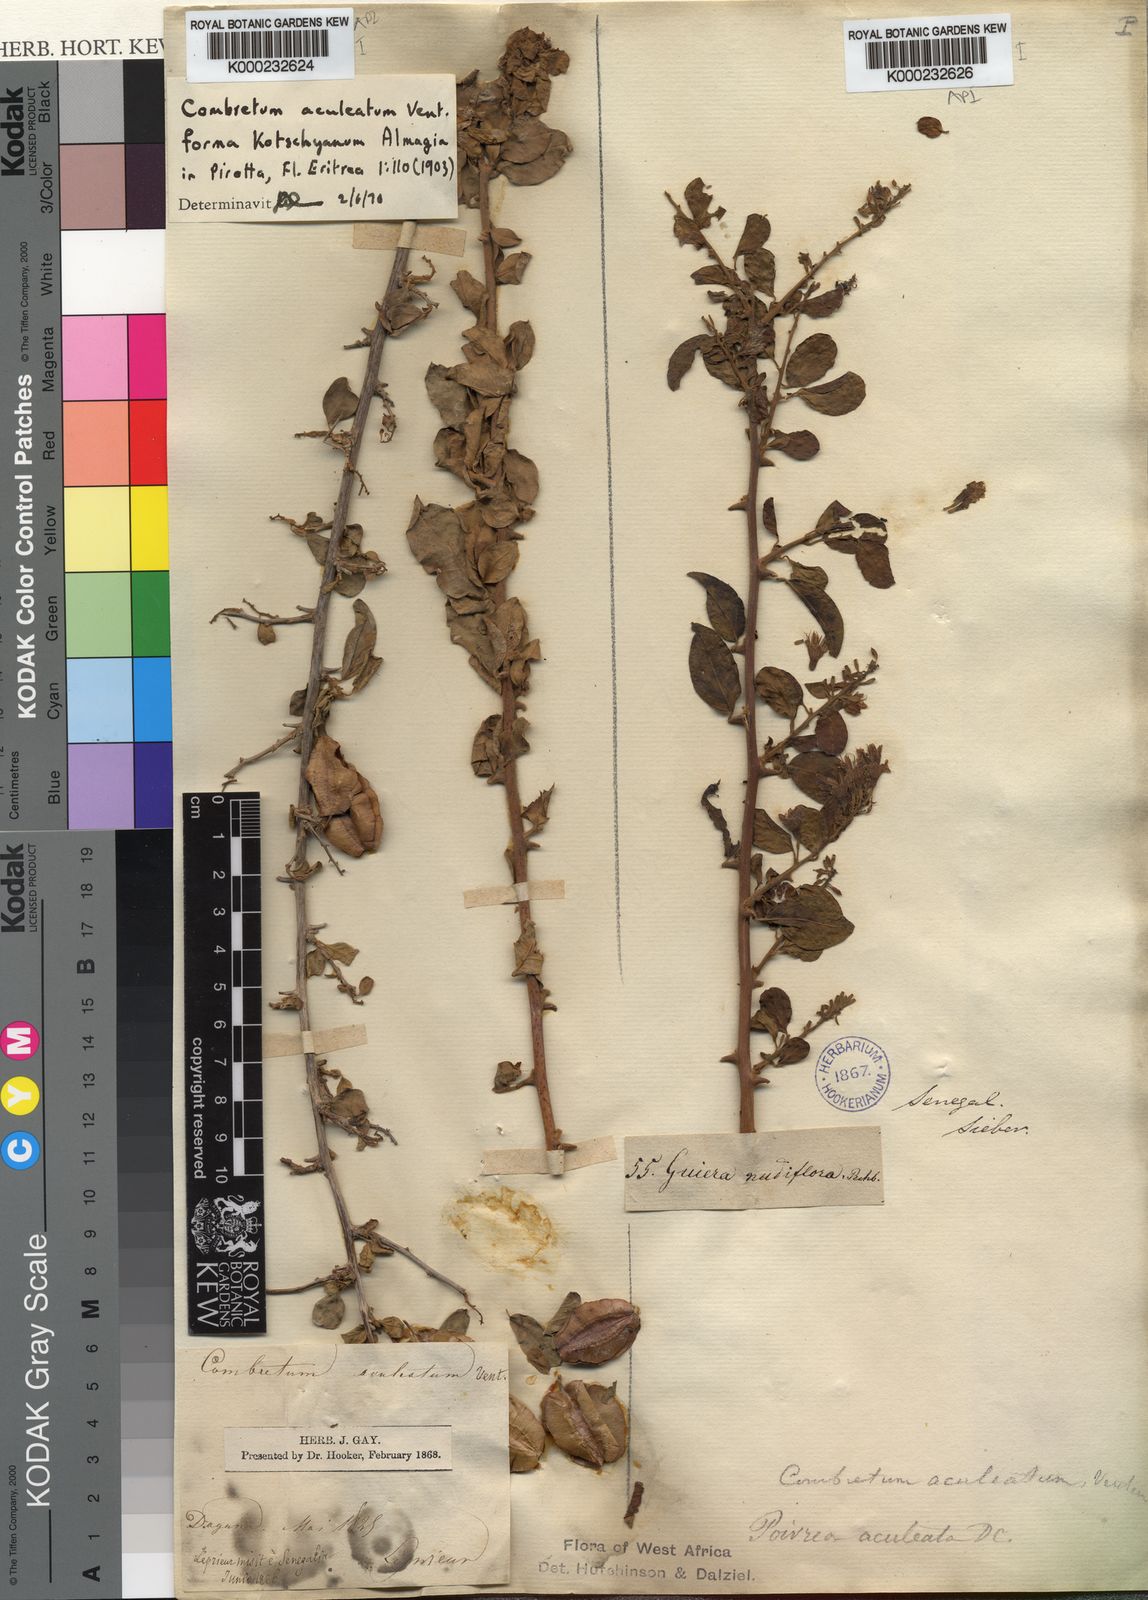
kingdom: Plantae
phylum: Tracheophyta
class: Magnoliopsida
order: Myrtales
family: Combretaceae
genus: Combretum
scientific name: Combretum aculeatum
